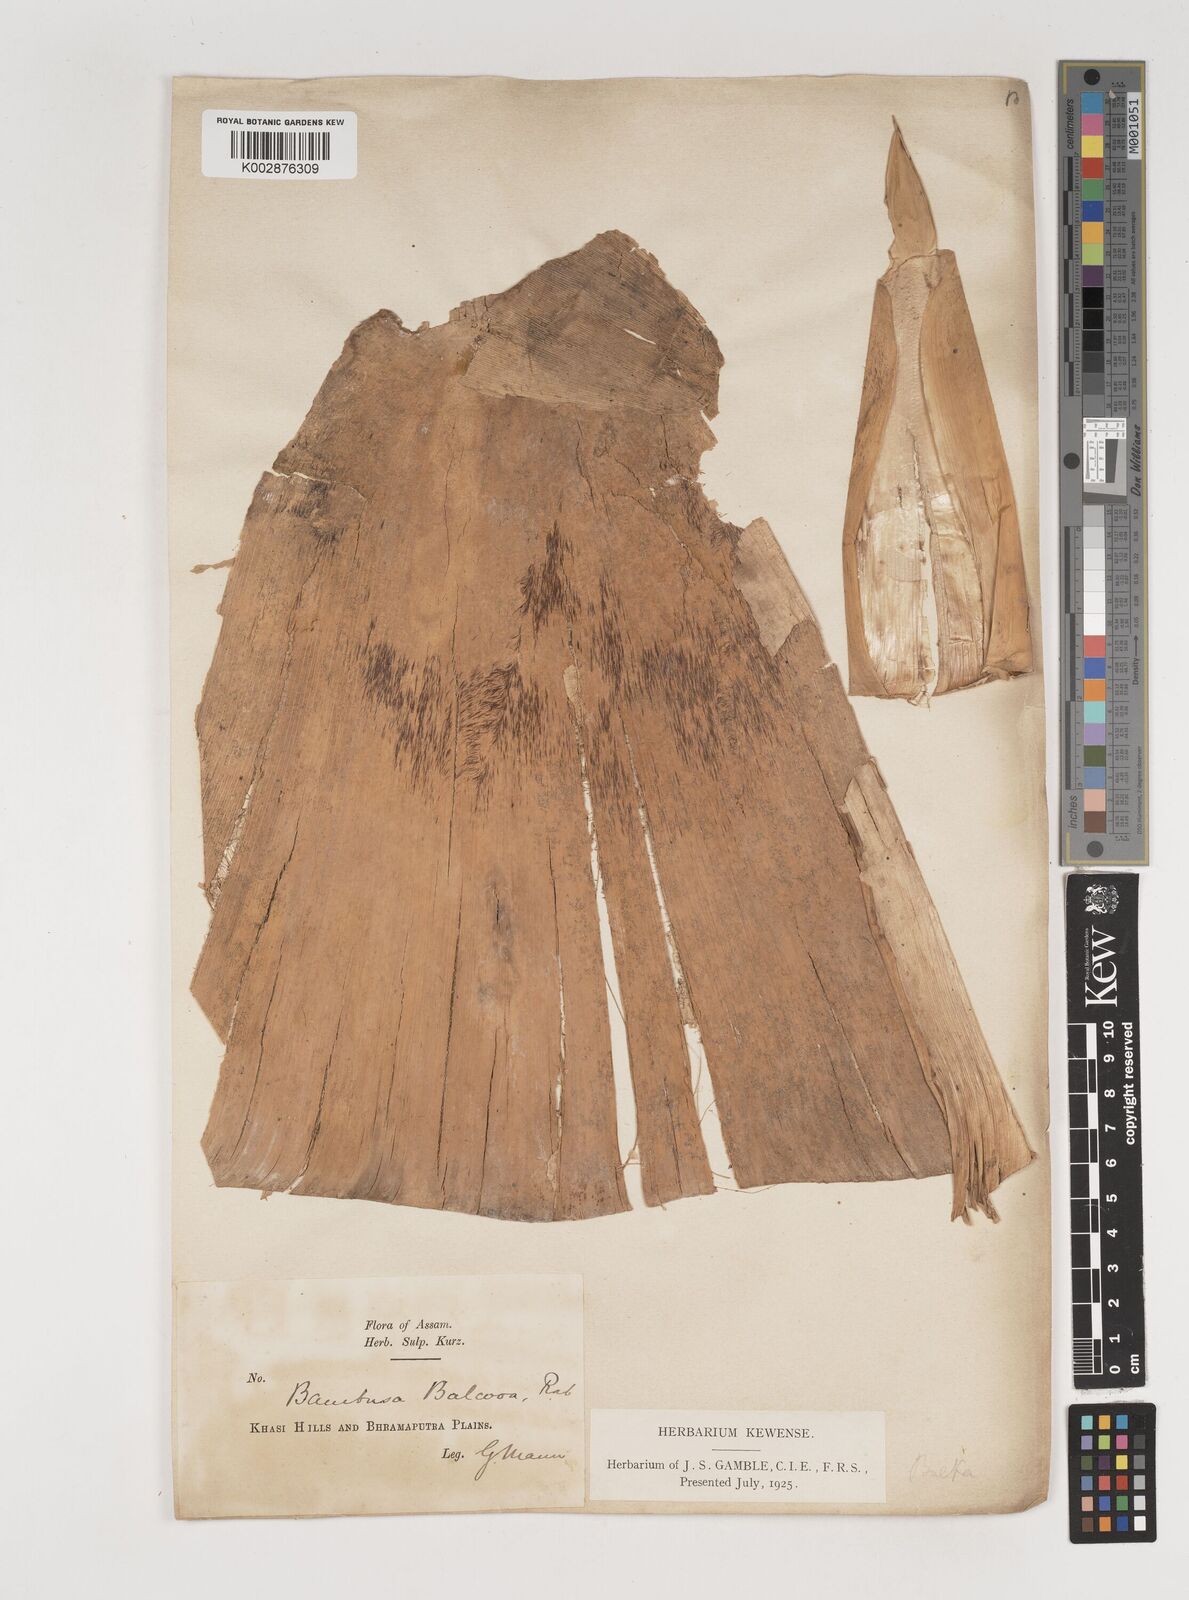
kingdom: Plantae
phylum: Tracheophyta
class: Liliopsida
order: Poales
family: Poaceae
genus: Bambusa
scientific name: Bambusa balcooa
